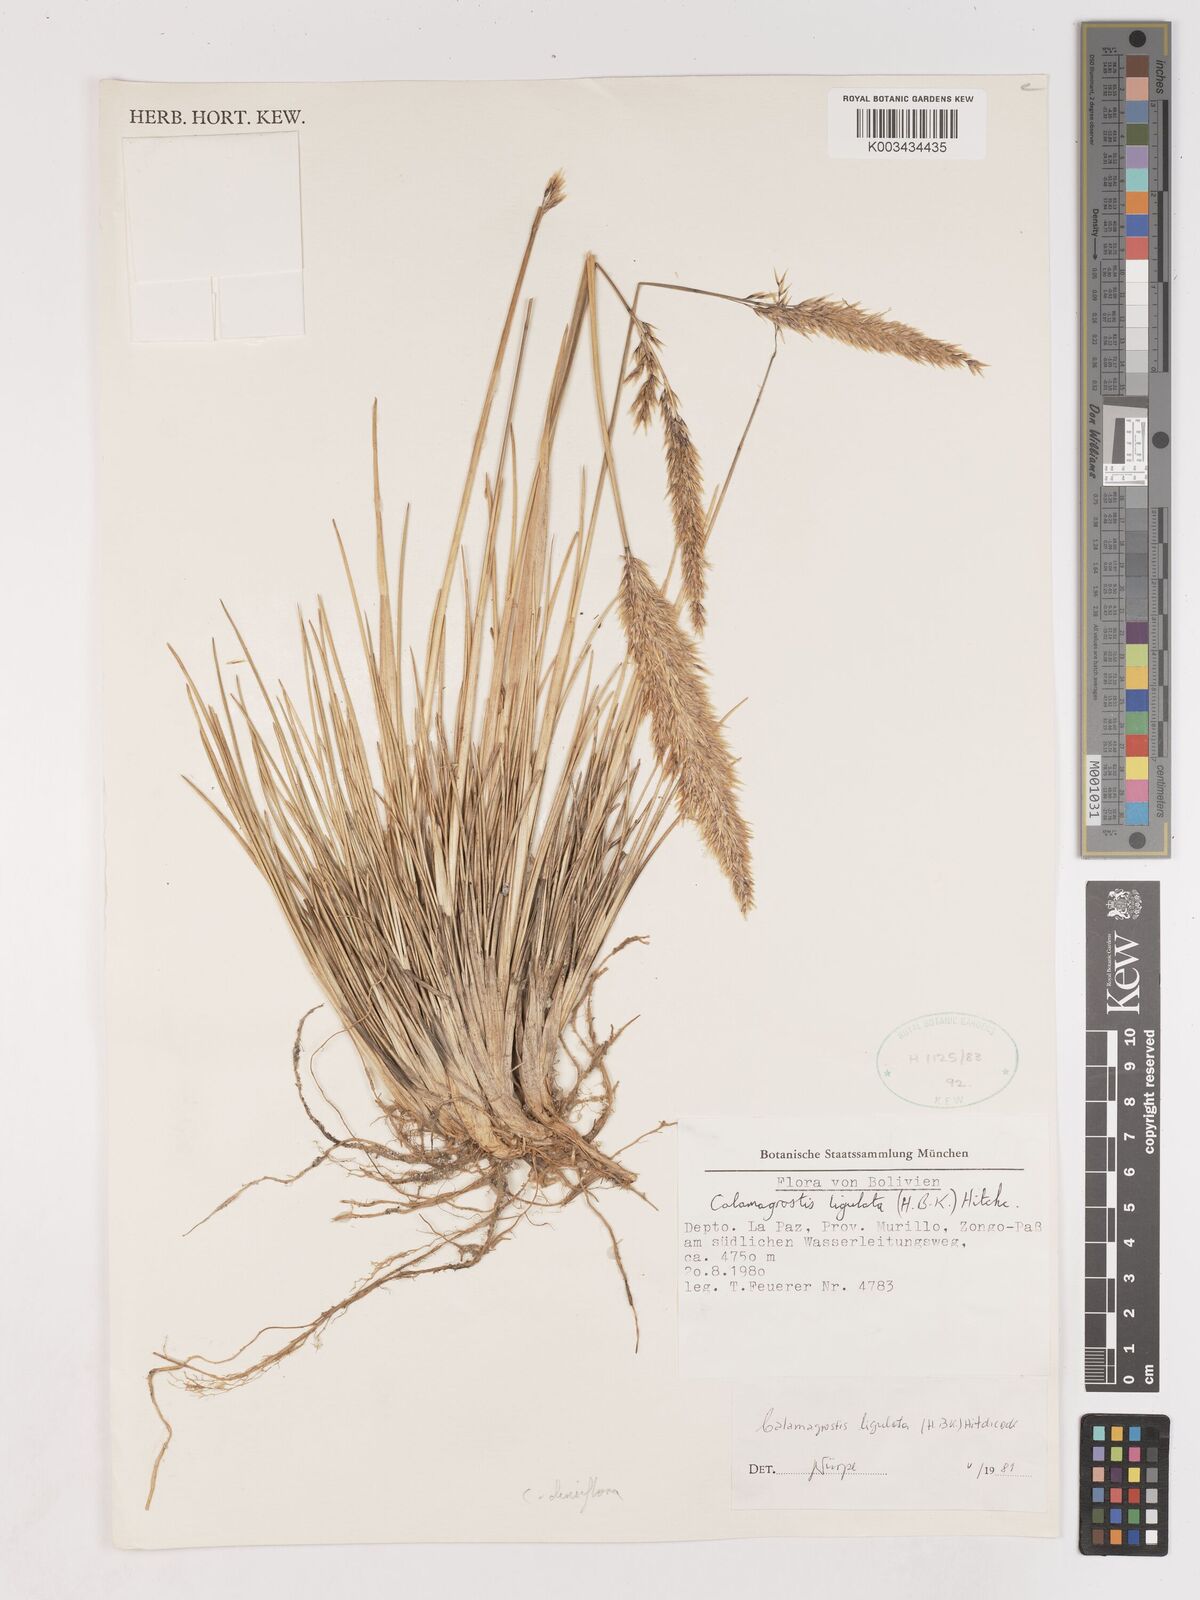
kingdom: Plantae
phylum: Tracheophyta
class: Liliopsida
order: Poales
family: Poaceae
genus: Cinnagrostis
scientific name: Cinnagrostis densiflora
